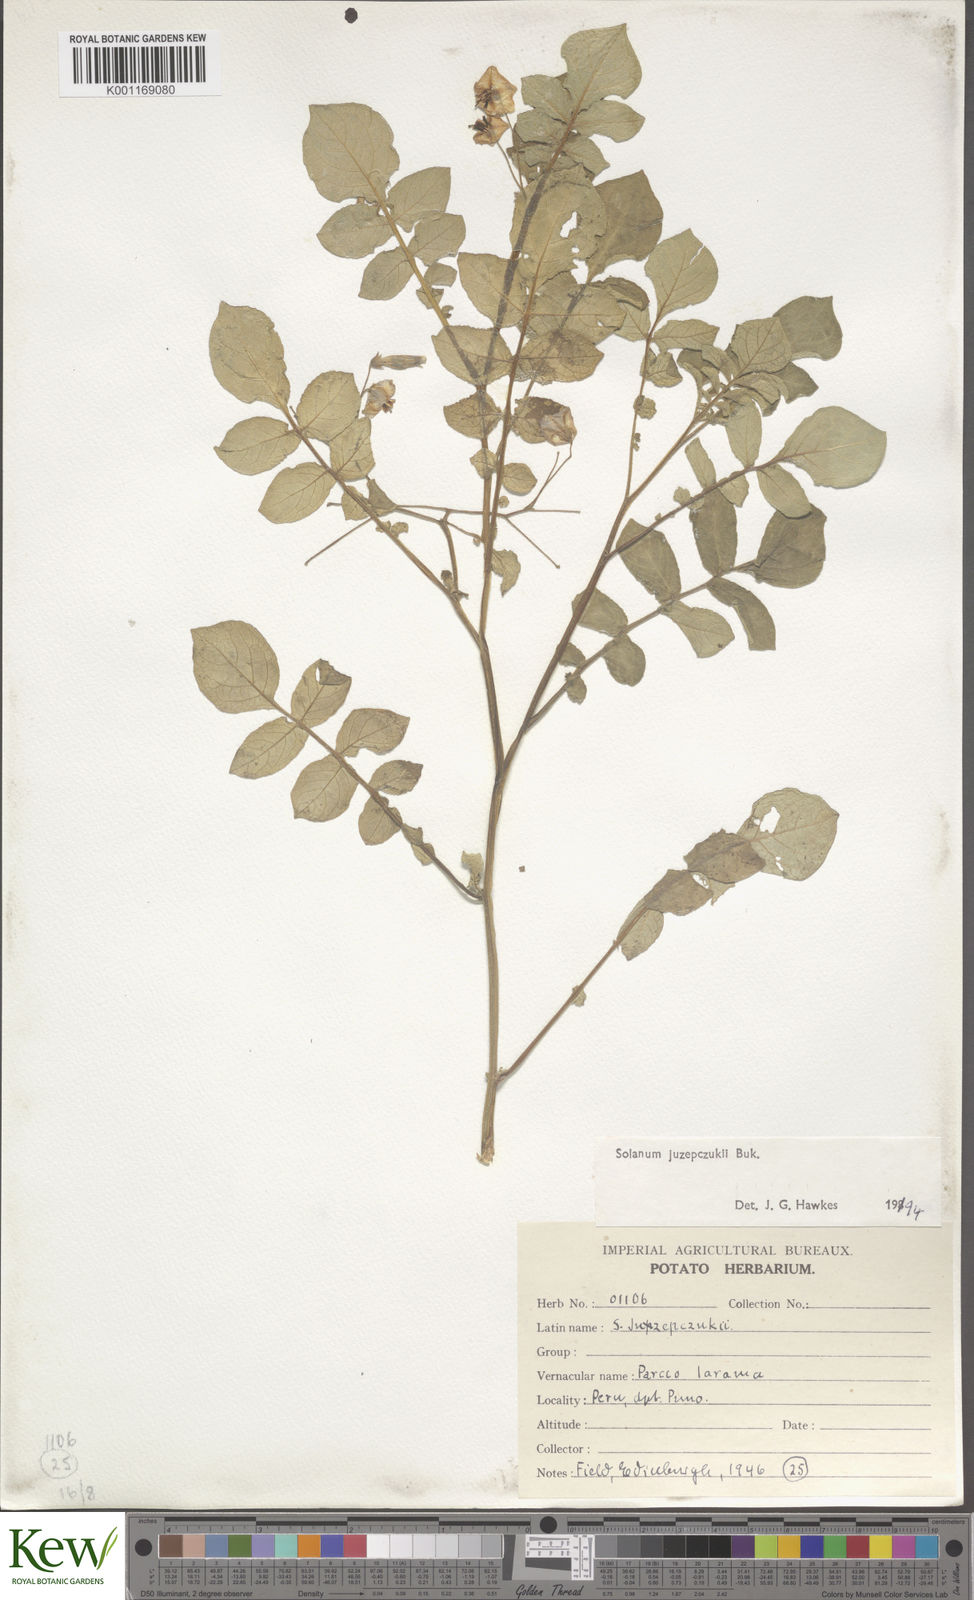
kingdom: Plantae
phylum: Tracheophyta
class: Magnoliopsida
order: Solanales
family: Solanaceae
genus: Solanum
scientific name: Solanum juzepczukii
